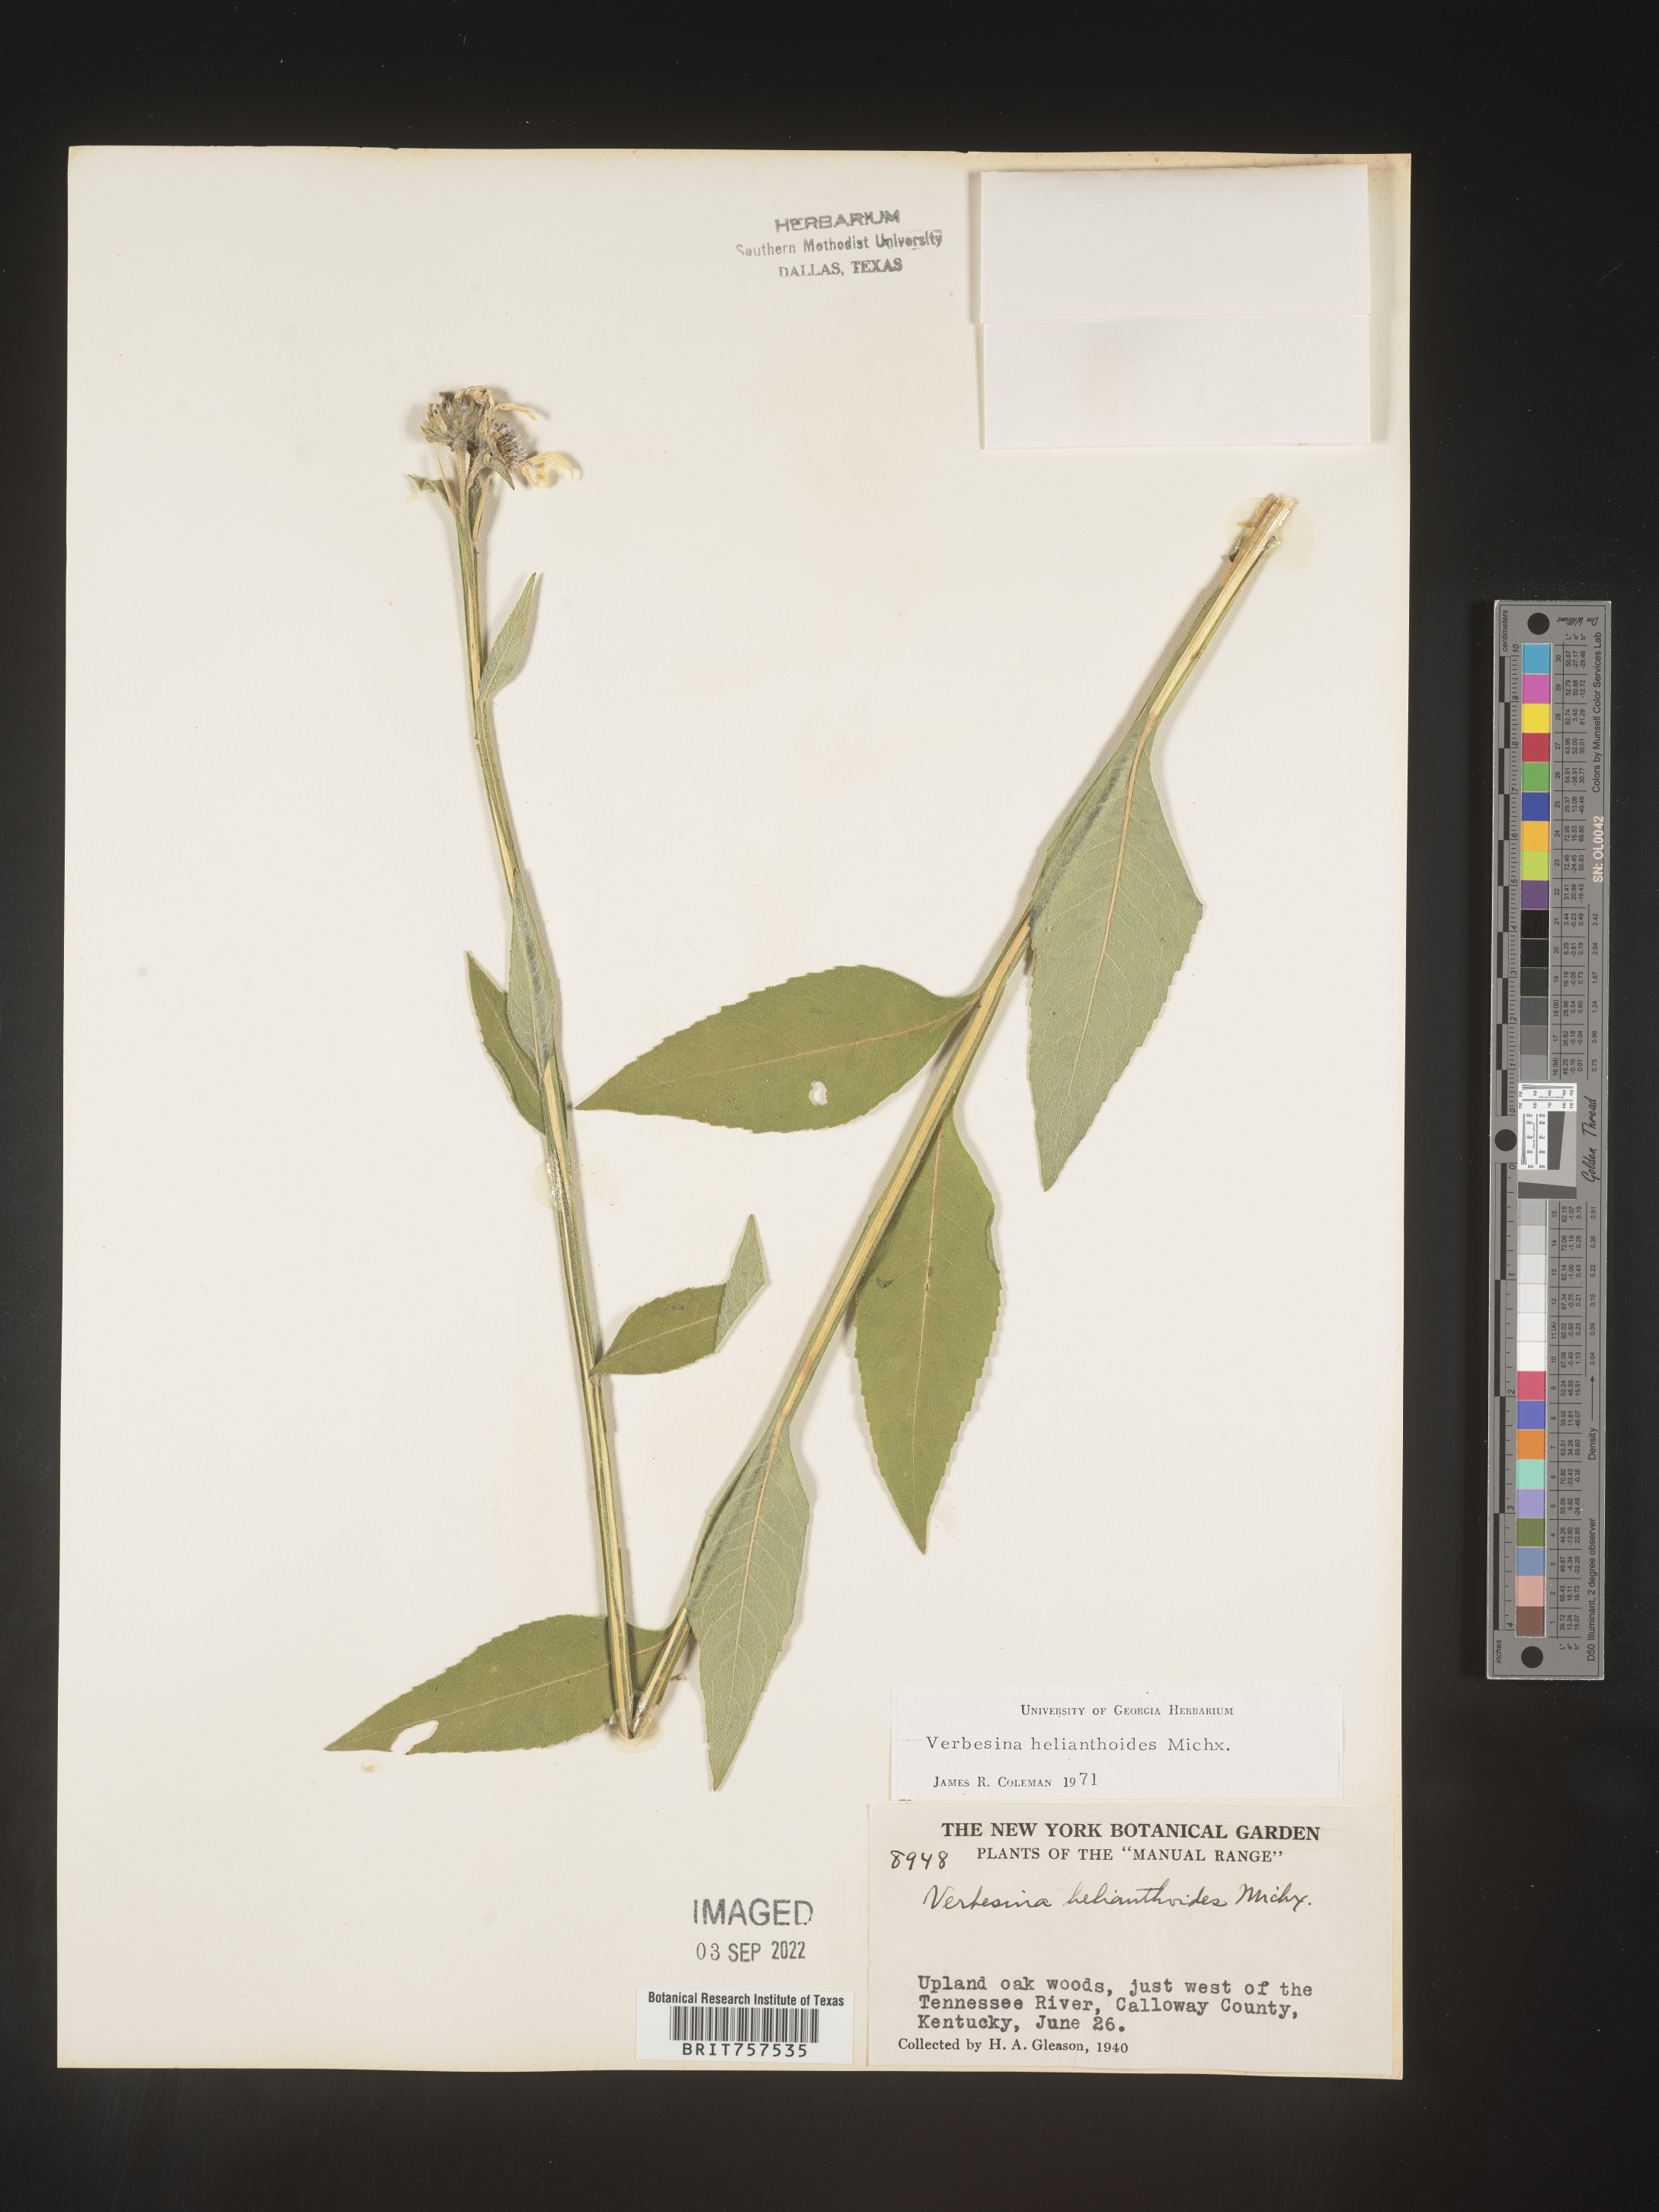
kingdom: Plantae
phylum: Tracheophyta
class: Magnoliopsida
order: Asterales
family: Asteraceae
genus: Verbesina
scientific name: Verbesina helianthoides
